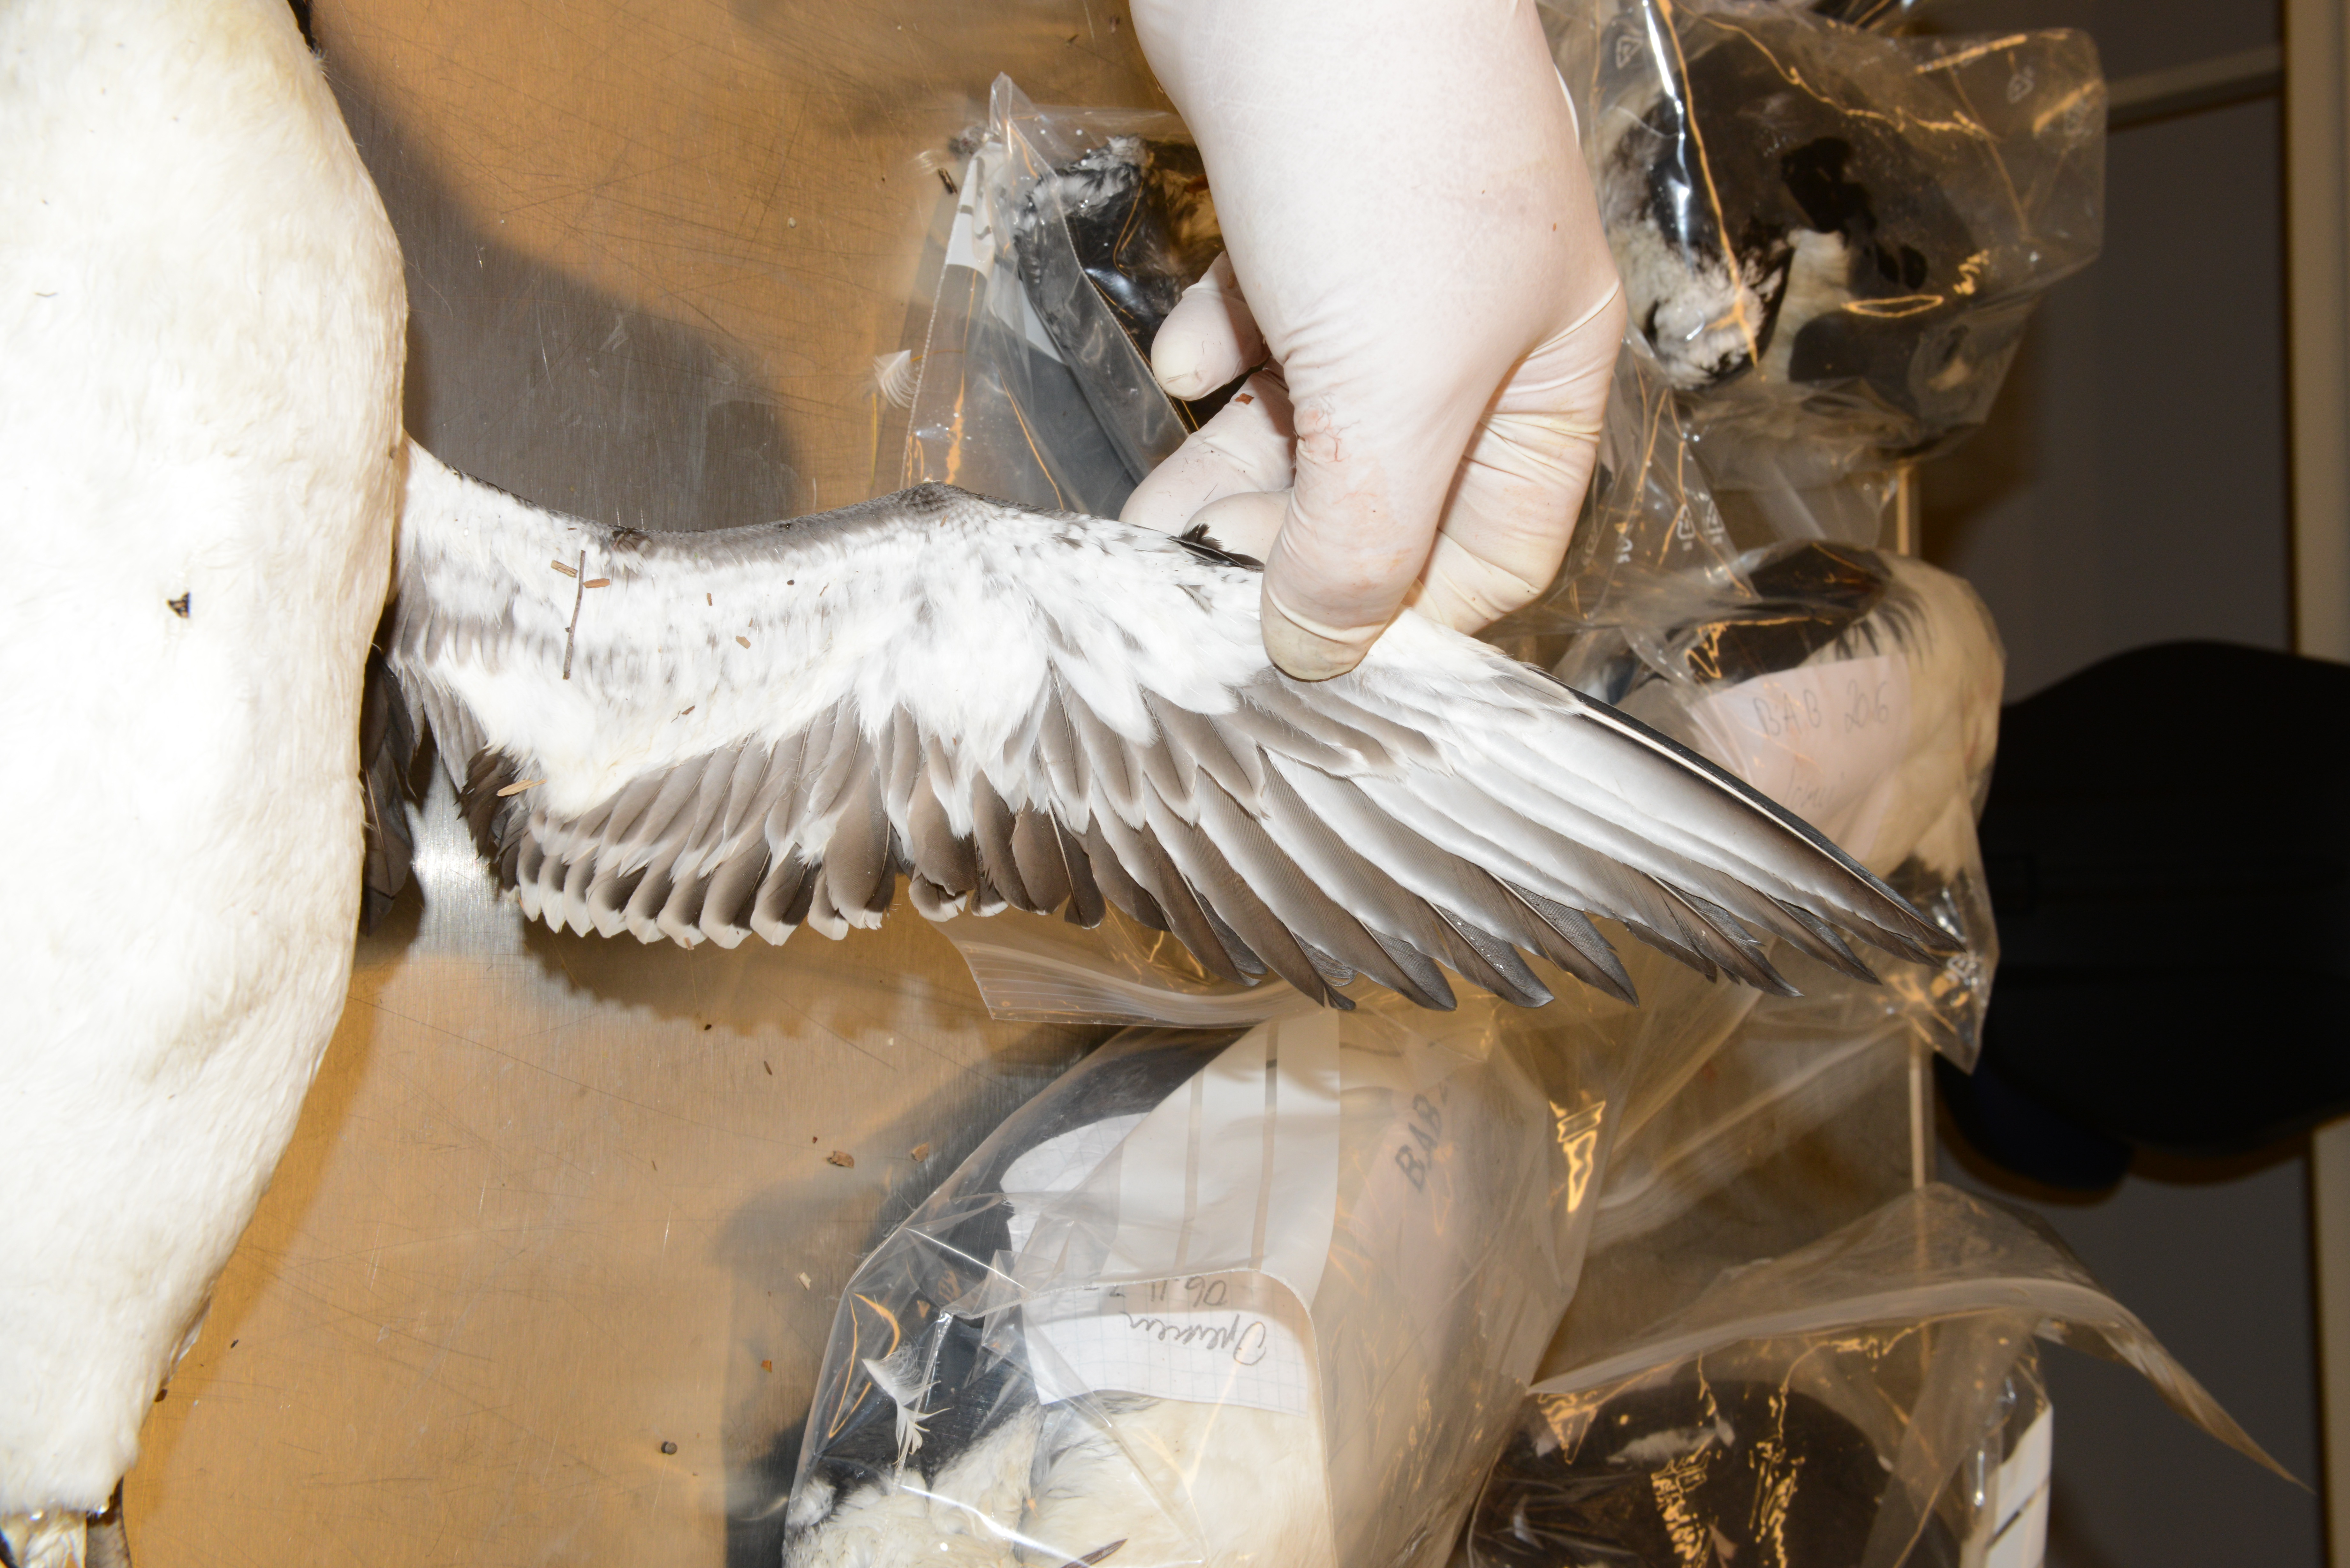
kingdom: Animalia
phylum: Chordata
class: Aves
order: Charadriiformes
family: Alcidae
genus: Uria
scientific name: Uria aalge
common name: Common murre
